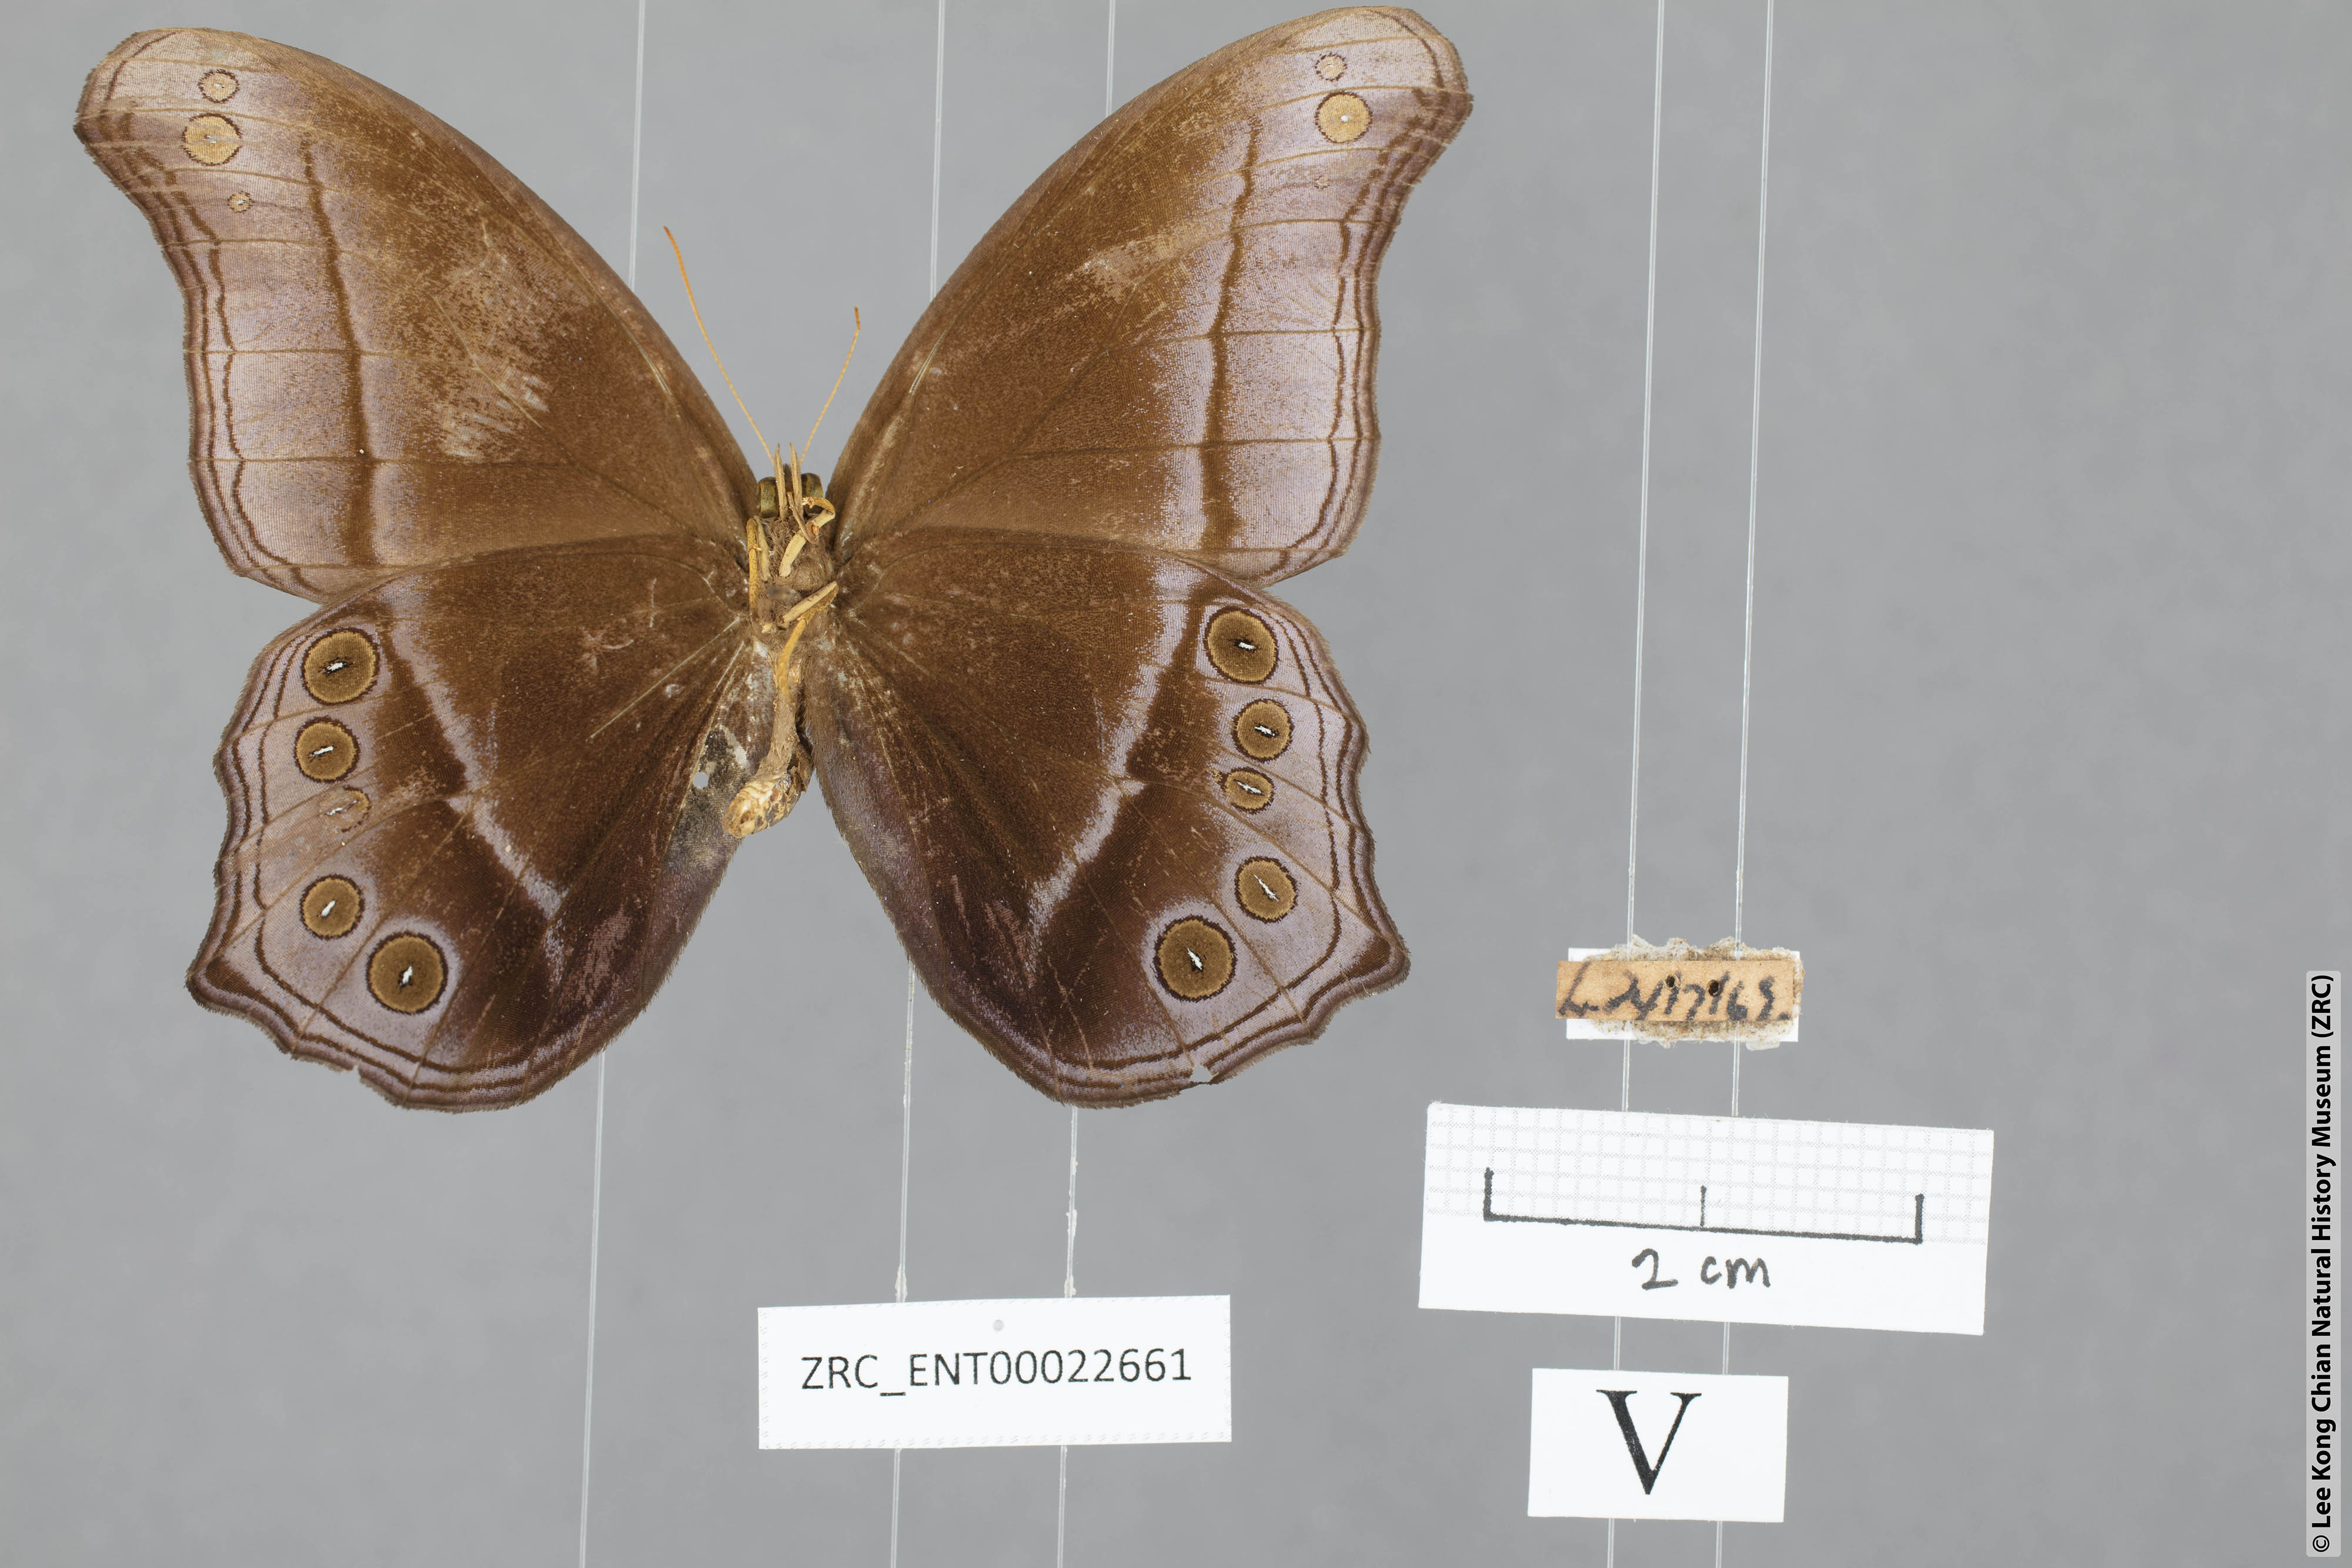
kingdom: Animalia
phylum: Arthropoda
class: Insecta
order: Lepidoptera
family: Nymphalidae
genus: Coelites
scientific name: Coelites epiminthia
